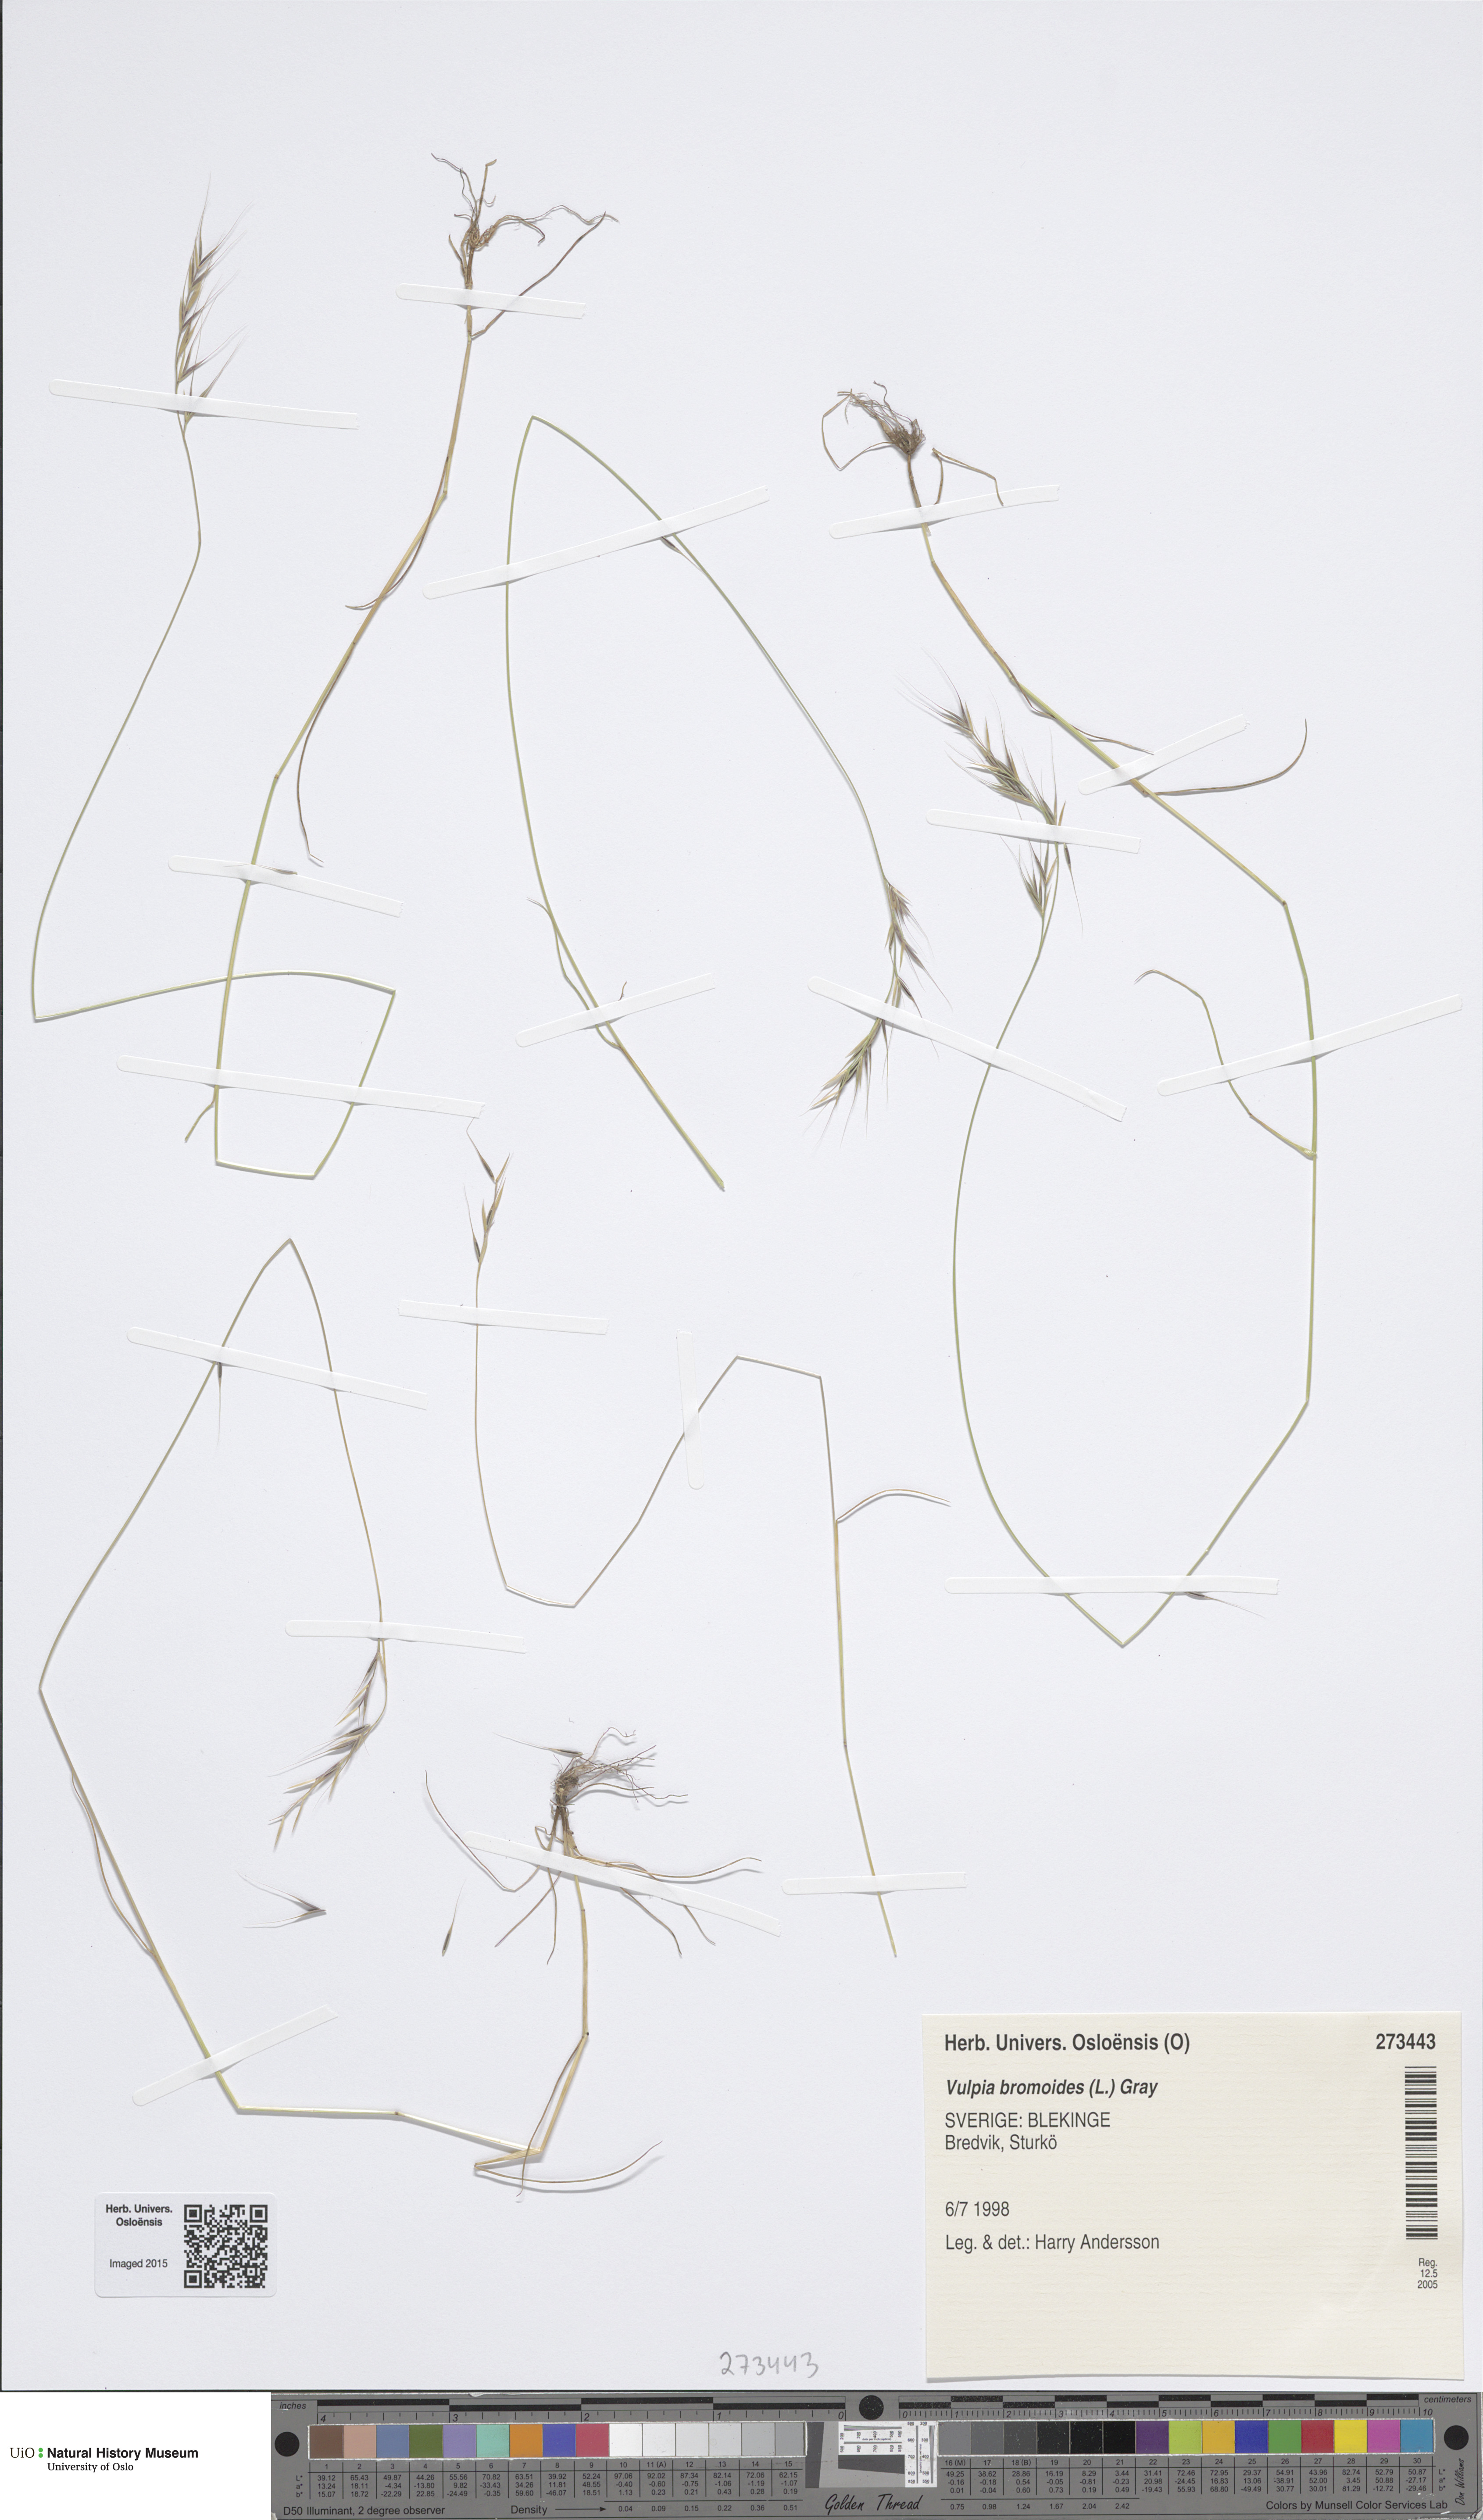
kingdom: Plantae
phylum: Tracheophyta
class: Liliopsida
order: Poales
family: Poaceae
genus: Festuca
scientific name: Festuca bromoides
